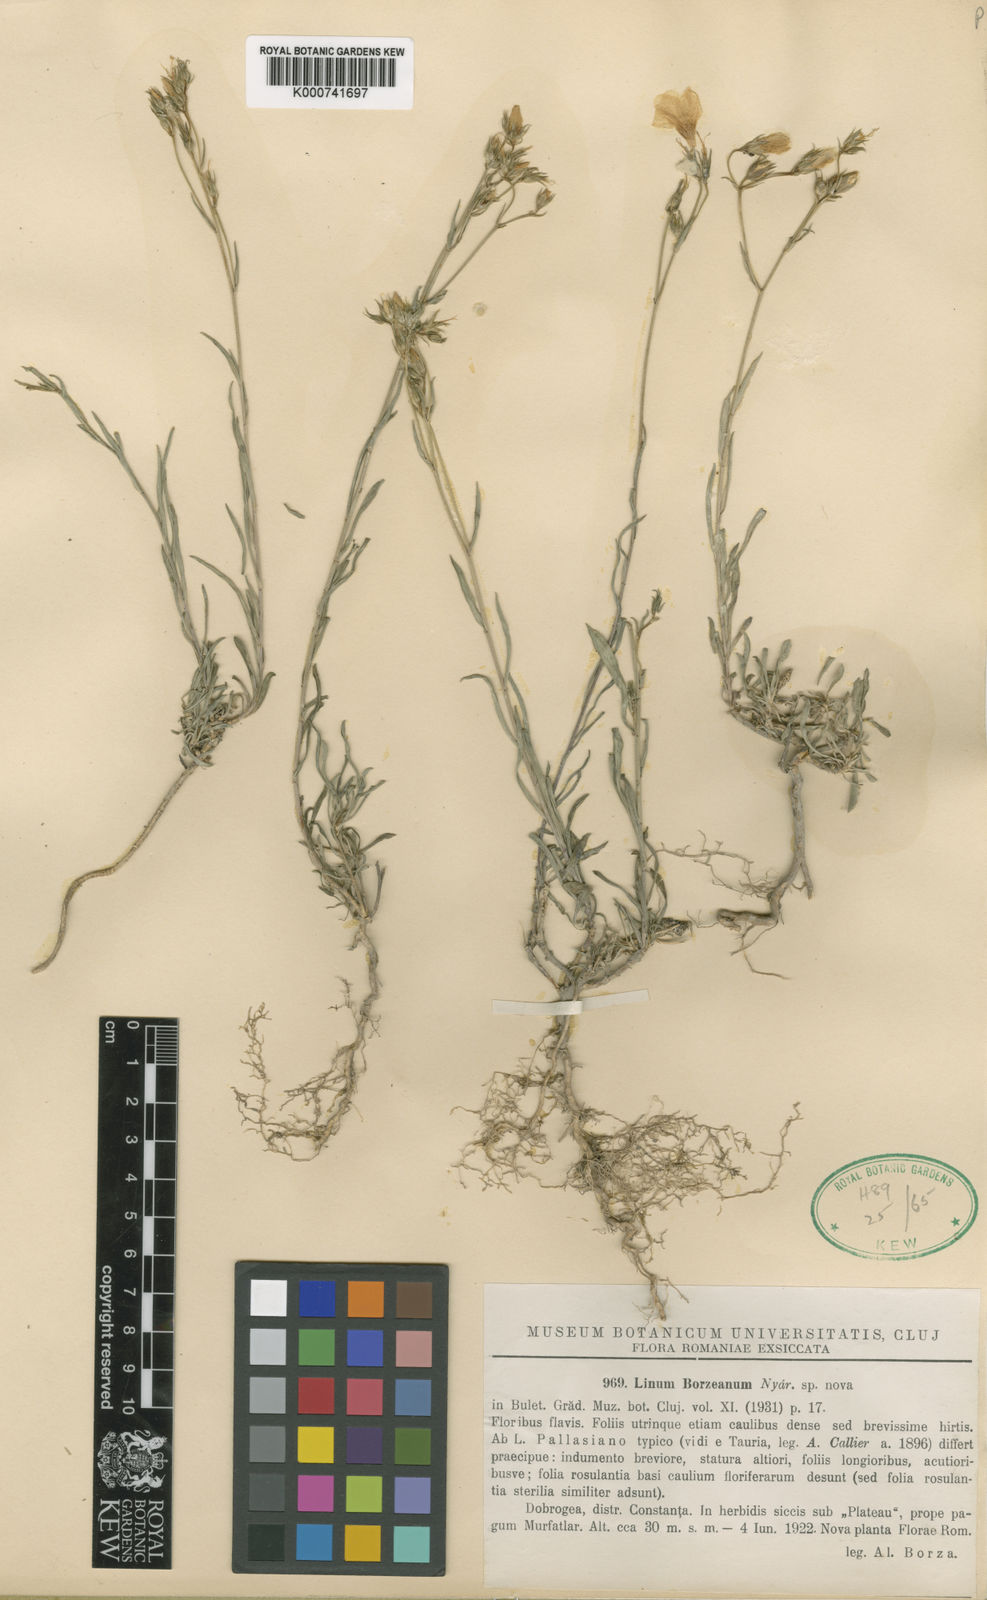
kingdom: Plantae
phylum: Tracheophyta
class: Magnoliopsida
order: Malpighiales
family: Linaceae
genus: Linum
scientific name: Linum
